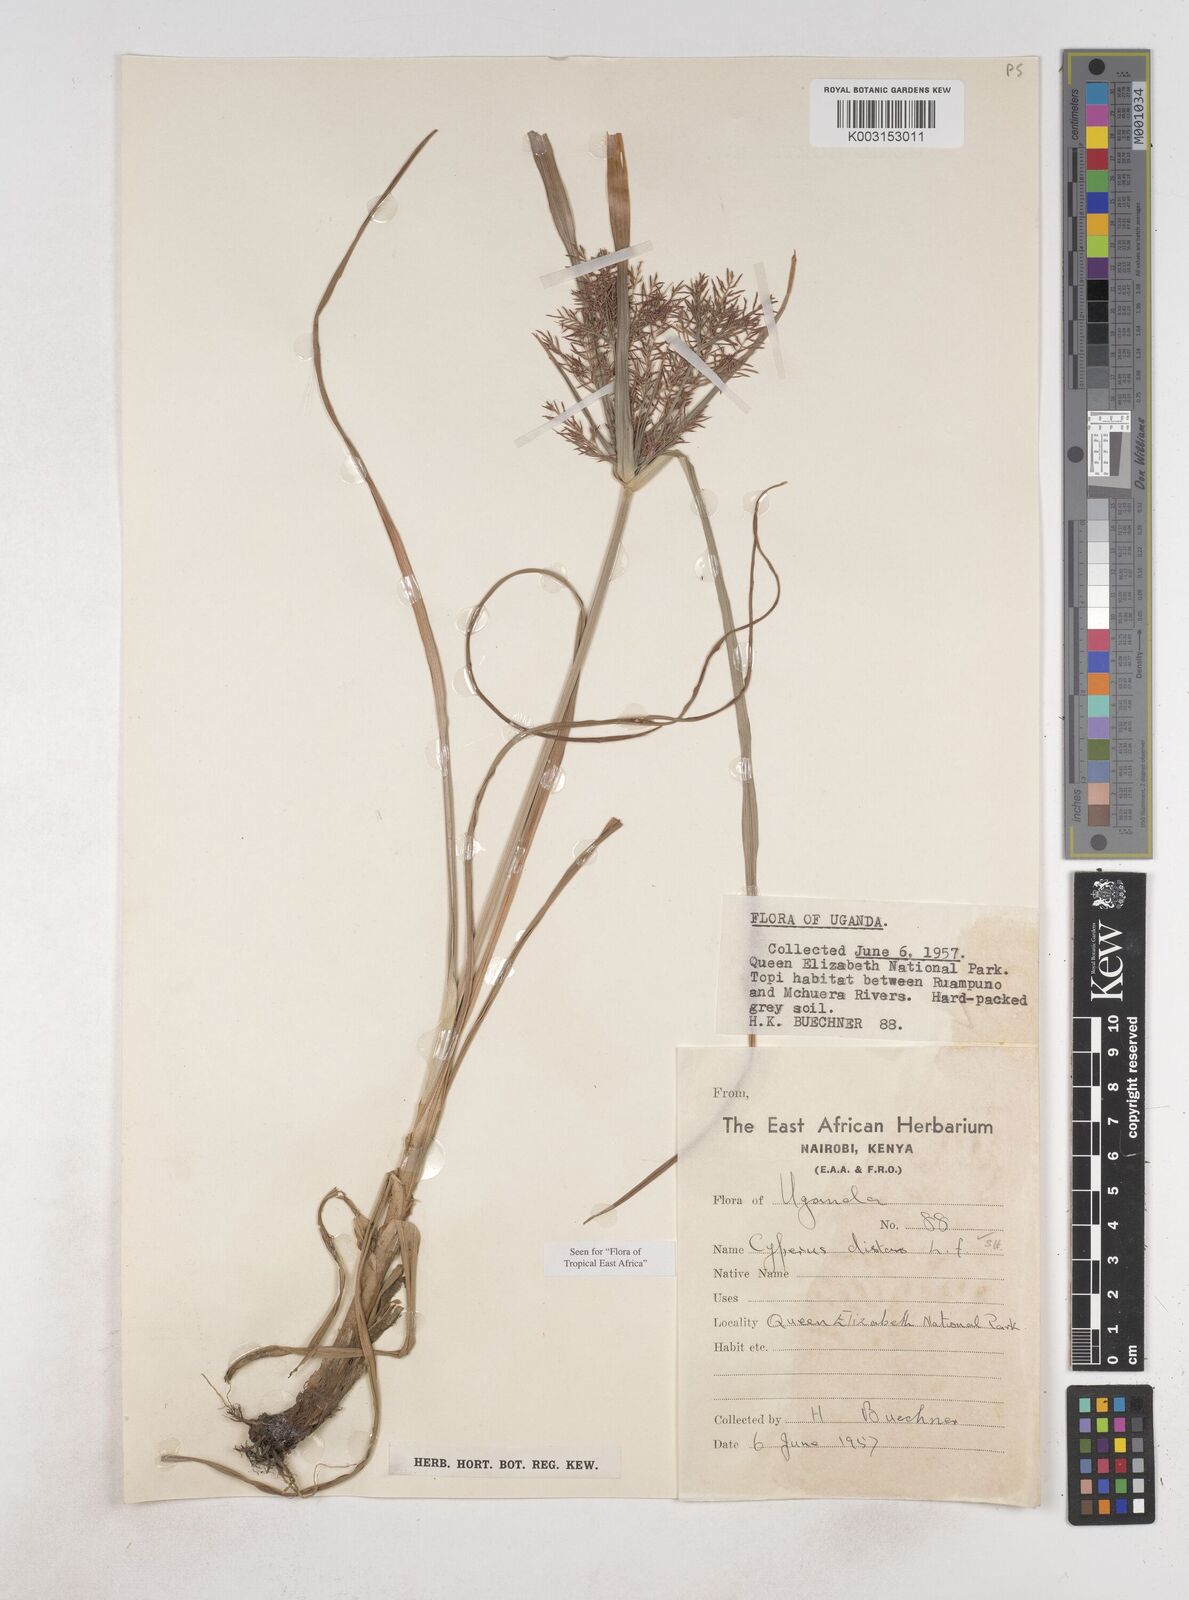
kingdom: Plantae
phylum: Tracheophyta
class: Liliopsida
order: Poales
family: Cyperaceae
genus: Cyperus
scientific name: Cyperus distans
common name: Slender cyperus
